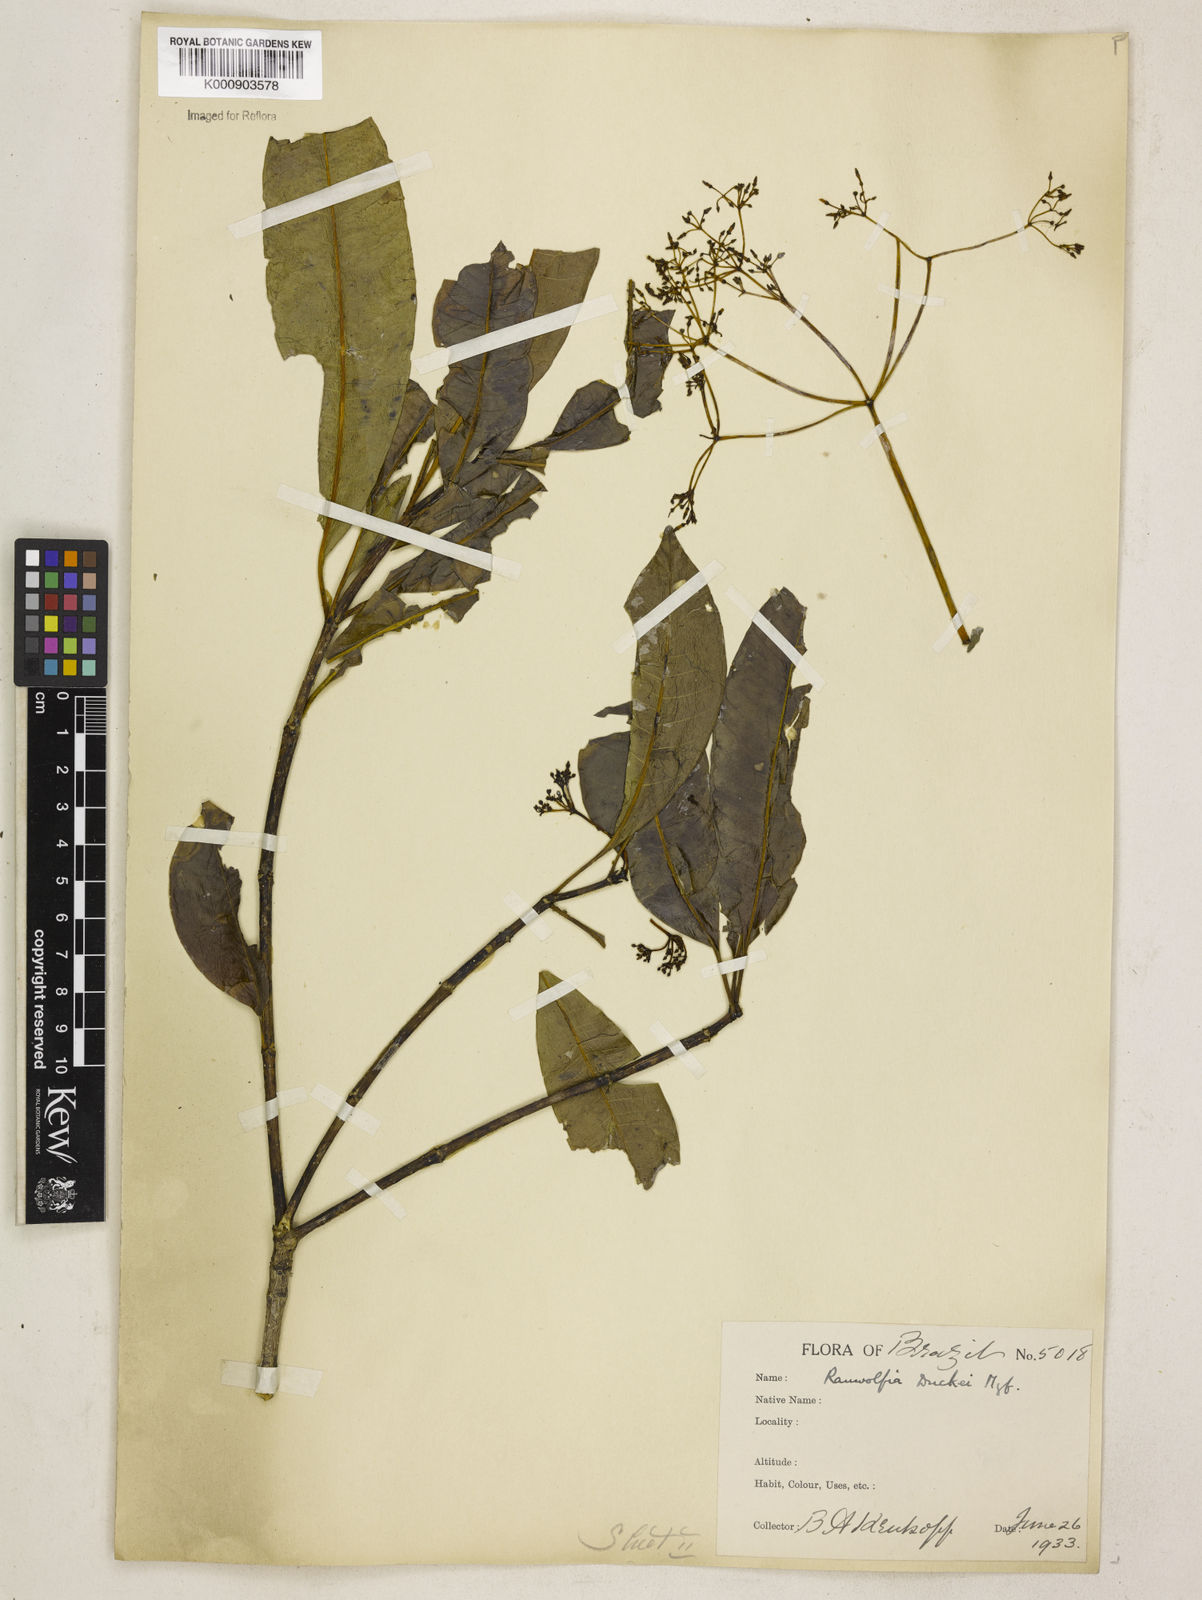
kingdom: Plantae
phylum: Tracheophyta
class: Magnoliopsida
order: Gentianales
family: Apocynaceae
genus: Rauvolfia
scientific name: Rauvolfia pentaphylla
